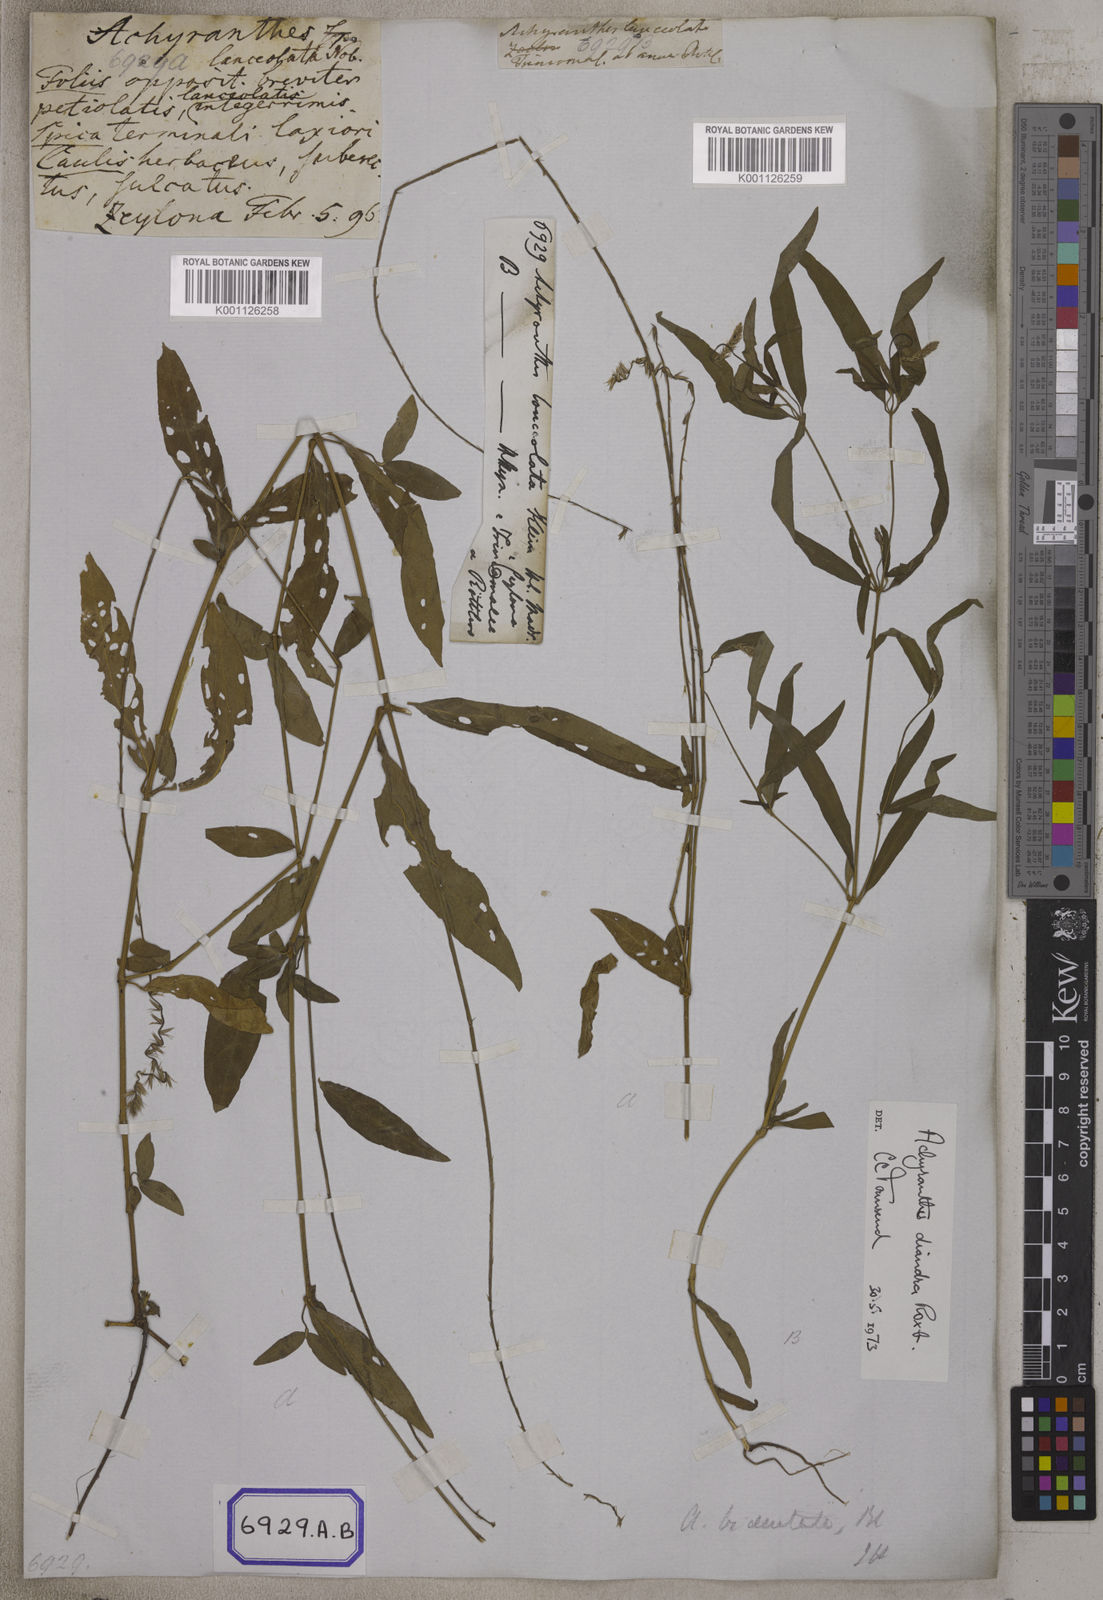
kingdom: Plantae
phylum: Tracheophyta
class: Magnoliopsida
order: Caryophyllales
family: Amaranthaceae
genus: Achyranthes
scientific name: Achyranthes
